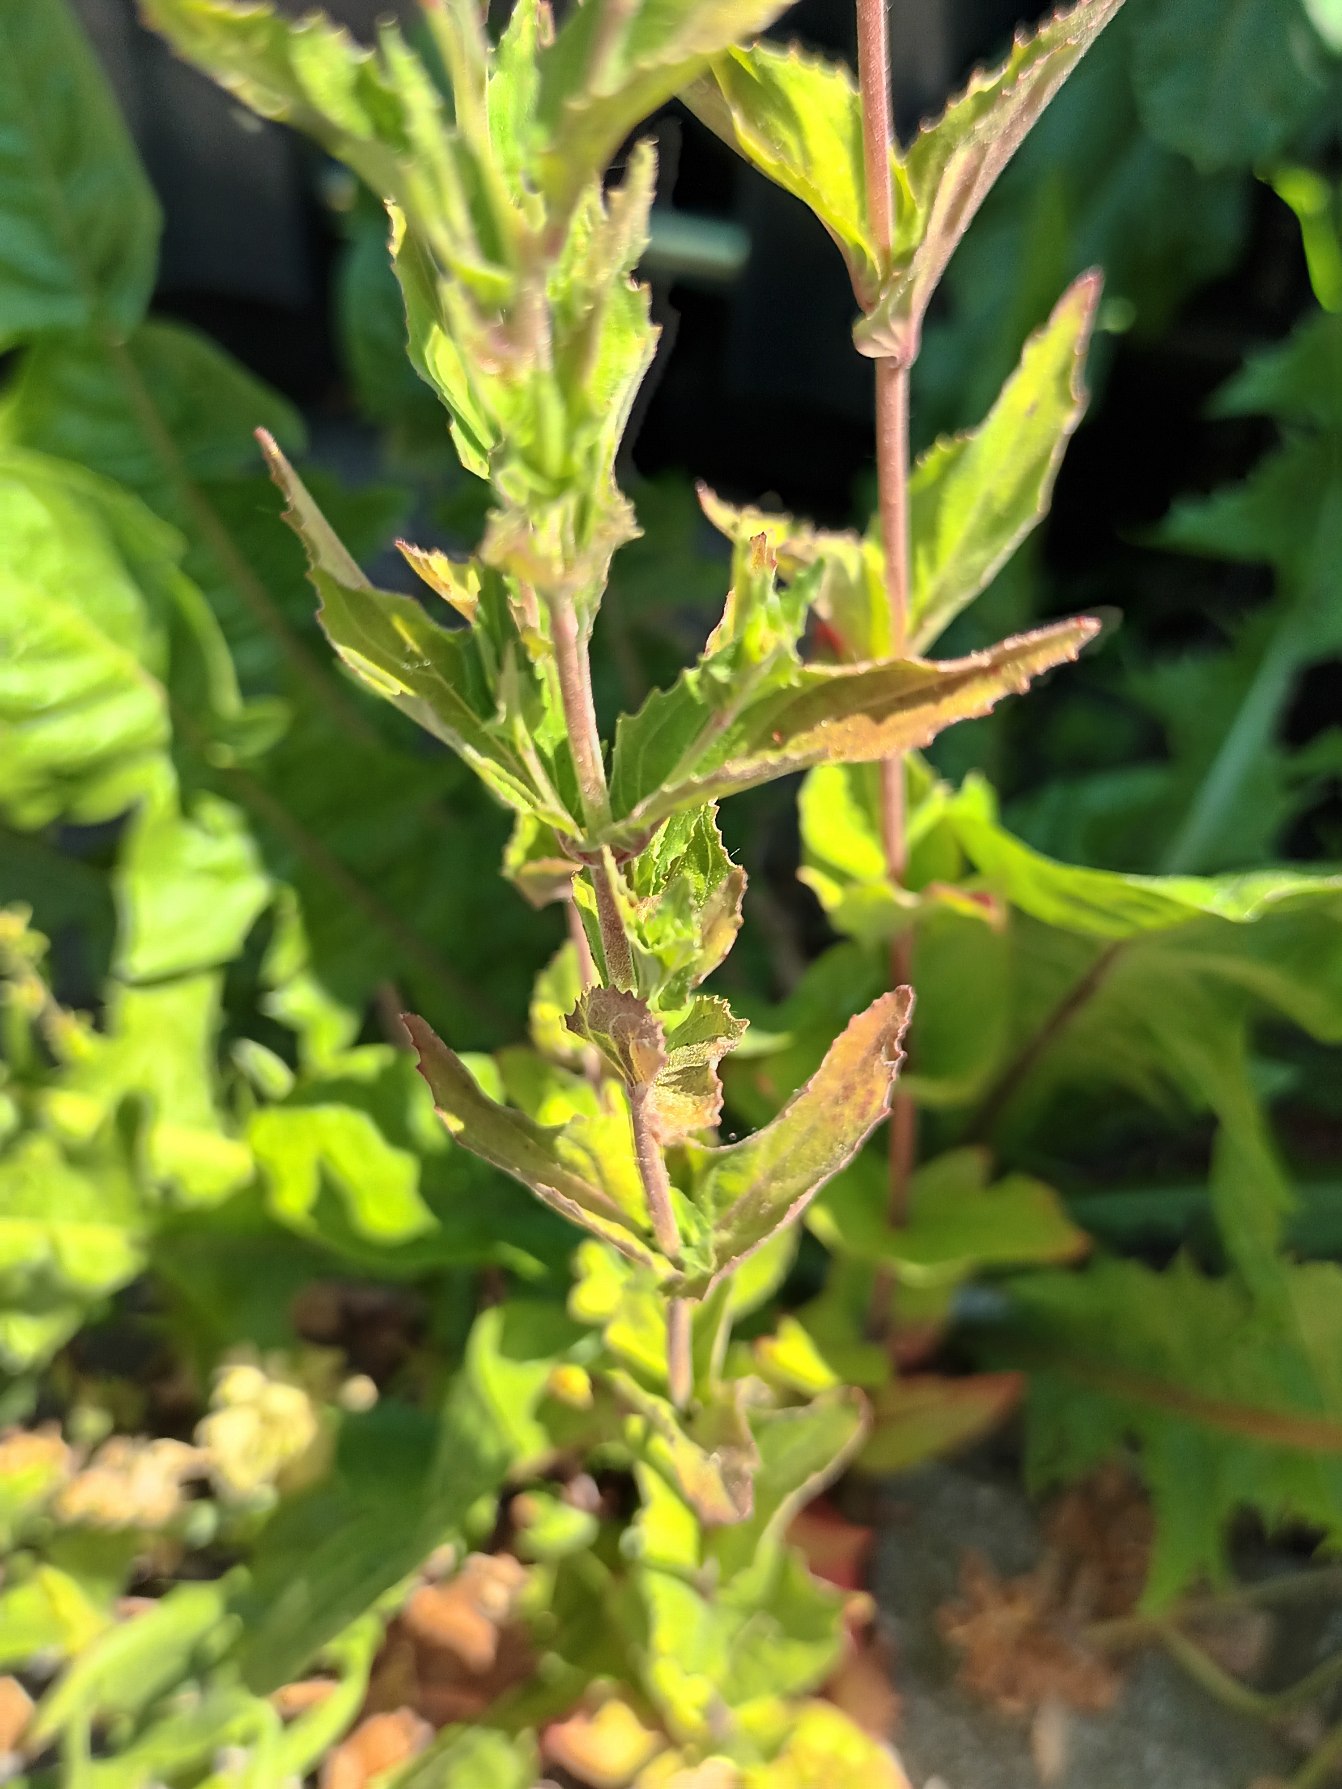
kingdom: Plantae
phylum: Tracheophyta
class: Magnoliopsida
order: Myrtales
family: Onagraceae
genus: Epilobium
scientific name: Epilobium montanum
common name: Glat dueurt
